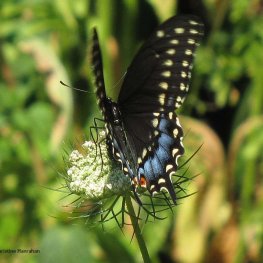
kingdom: Animalia
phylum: Arthropoda
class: Insecta
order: Lepidoptera
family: Papilionidae
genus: Papilio
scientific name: Papilio polyxenes
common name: Black Swallowtail
